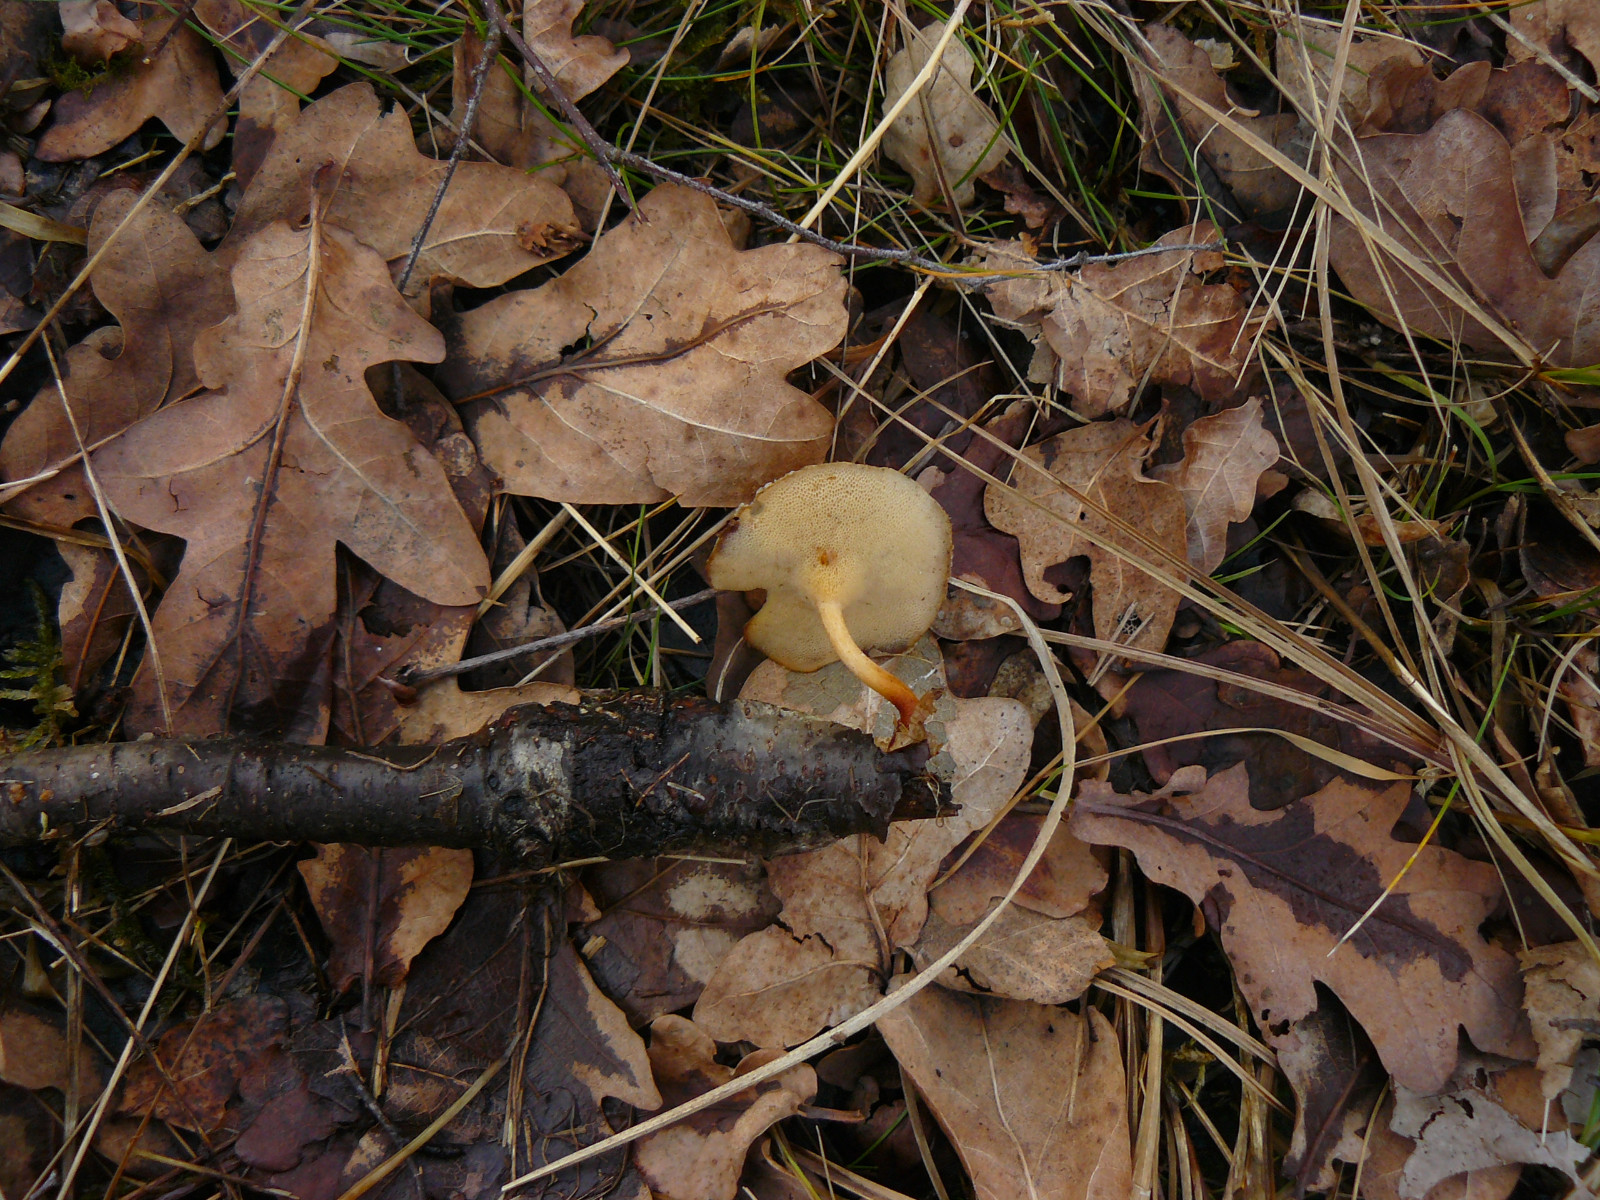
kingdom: Fungi
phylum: Basidiomycota
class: Agaricomycetes
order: Polyporales
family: Polyporaceae
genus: Lentinus
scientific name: Lentinus brumalis
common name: vinter-stilkporesvamp
